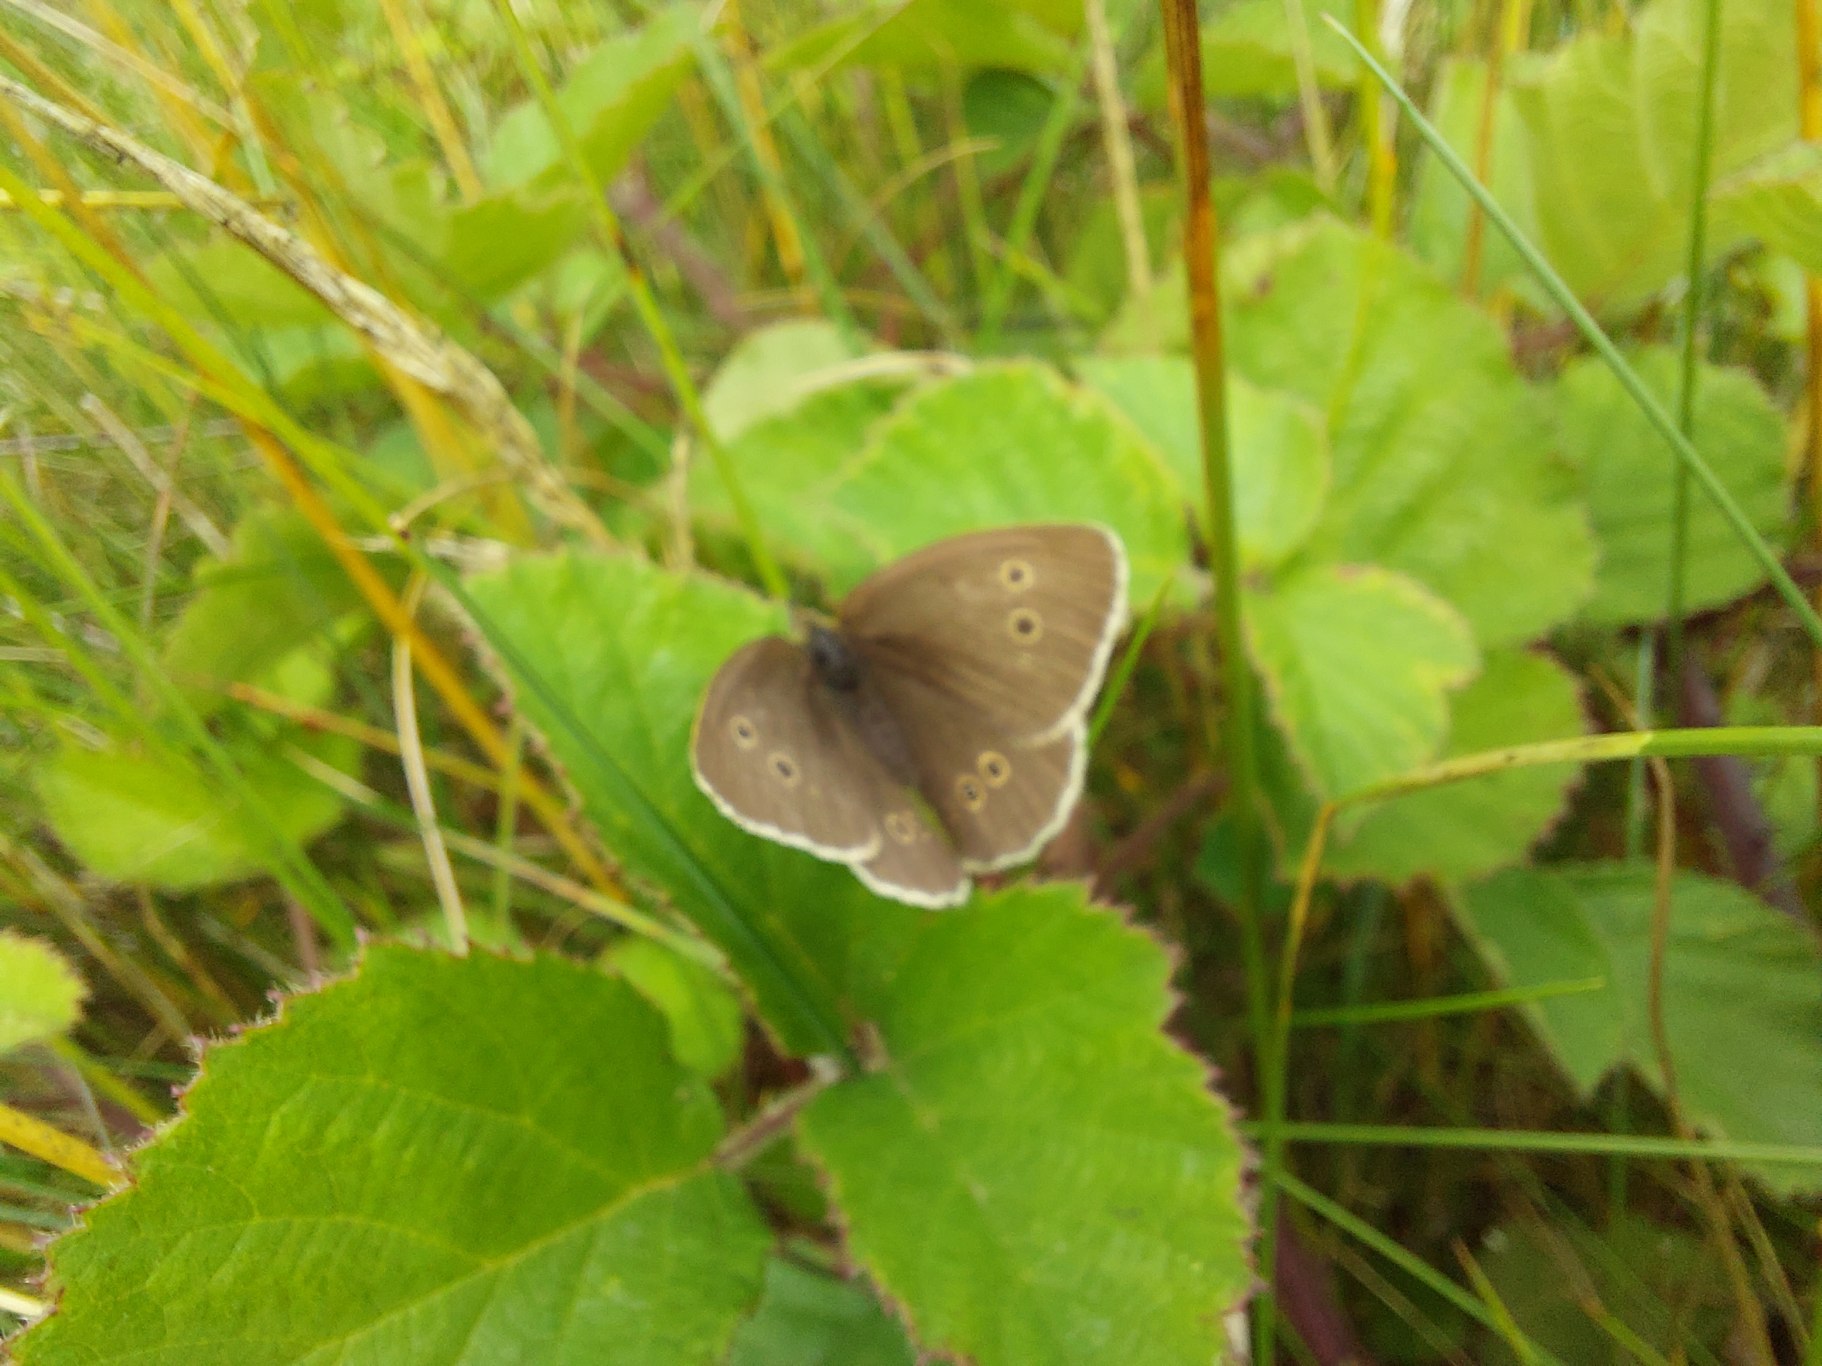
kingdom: Animalia
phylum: Arthropoda
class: Insecta
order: Lepidoptera
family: Nymphalidae
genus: Aphantopus
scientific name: Aphantopus hyperantus
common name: Engrandøje
